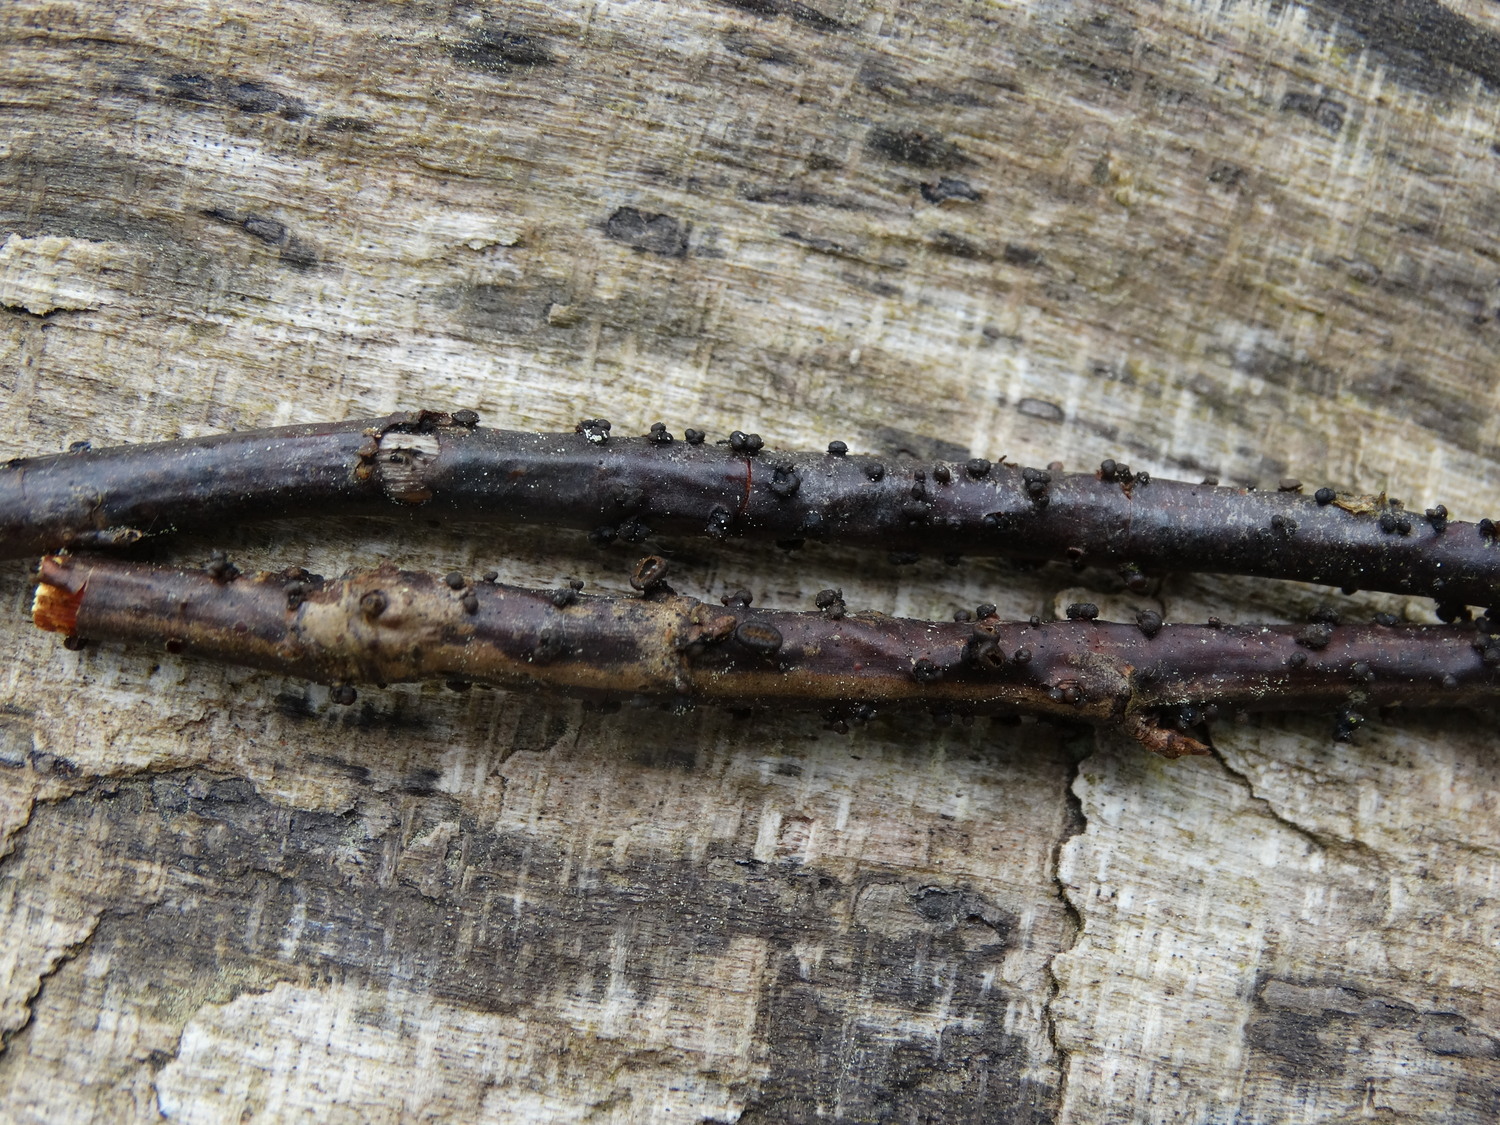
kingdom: Fungi
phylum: Ascomycota
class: Leotiomycetes
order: Helotiales
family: Godroniaceae
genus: Godronia
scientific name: Godronia ribis
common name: ribs-urneskive
